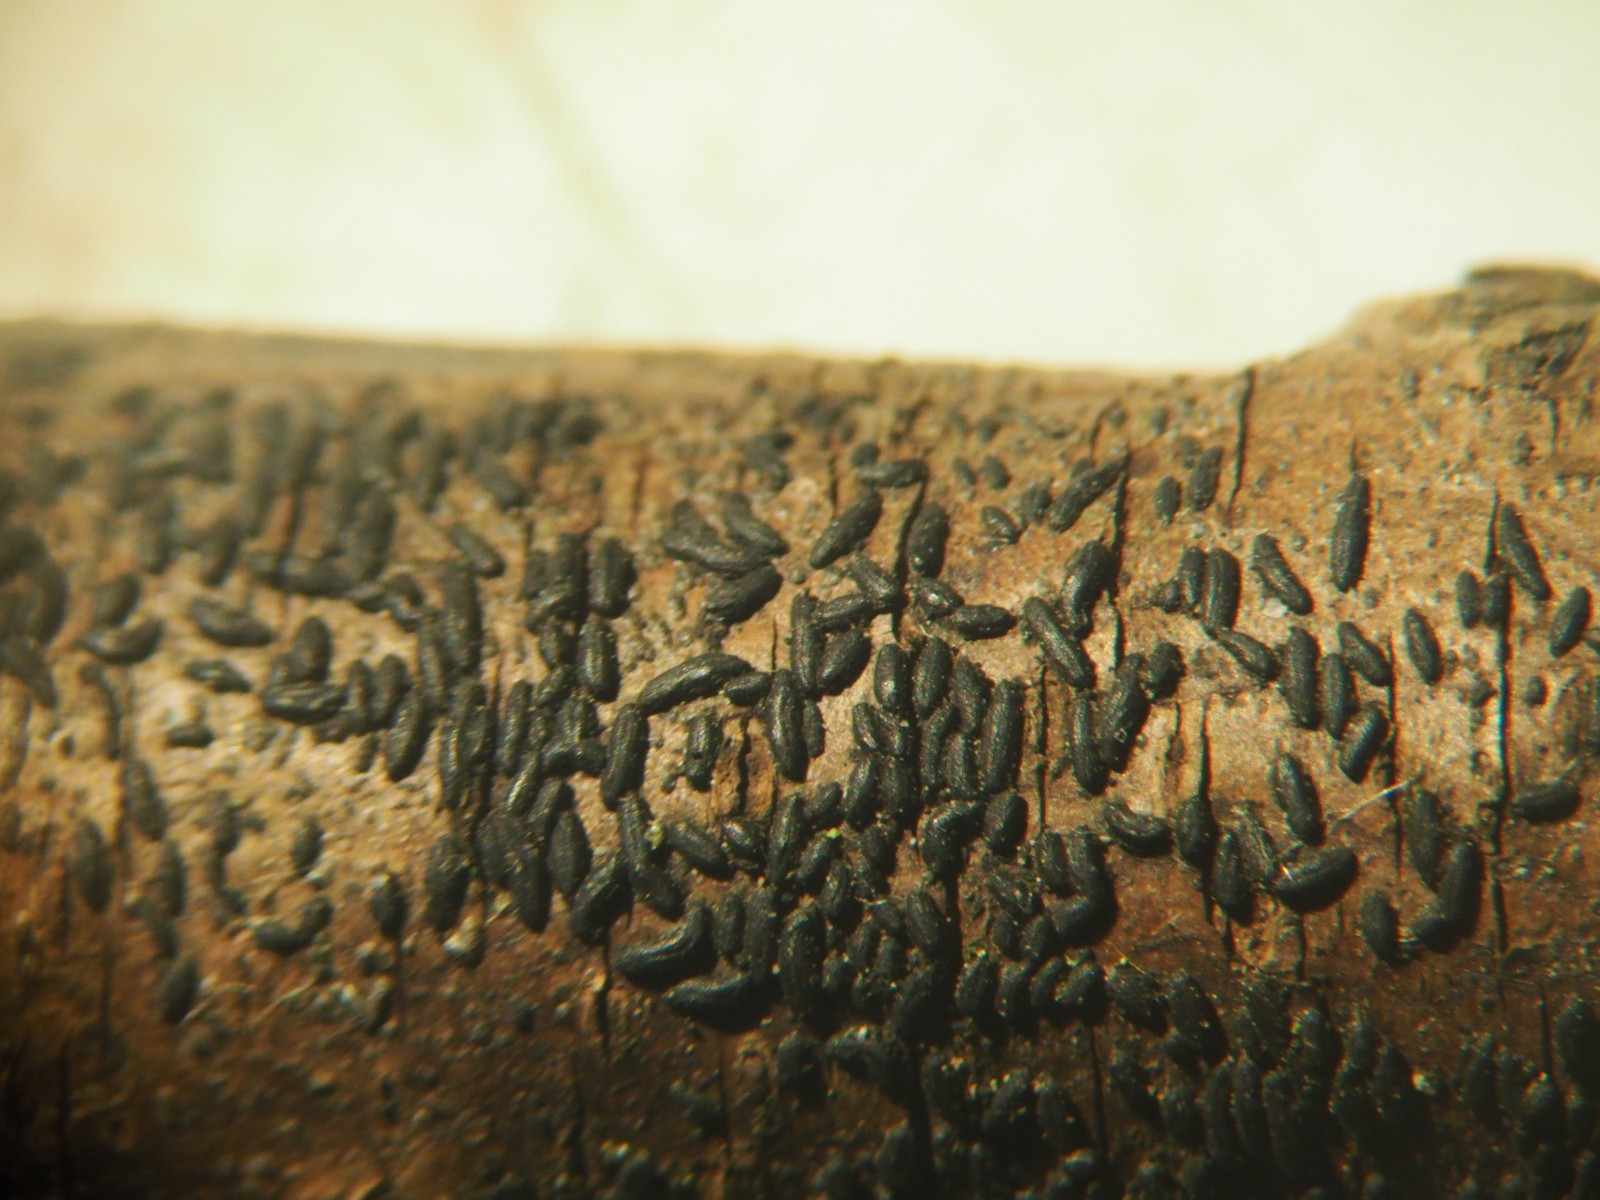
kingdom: Fungi
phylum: Ascomycota
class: Dothideomycetes
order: Hysteriales
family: Hysteriaceae
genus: Hysterium
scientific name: Hysterium acuminatum
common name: almindelig kulmund
